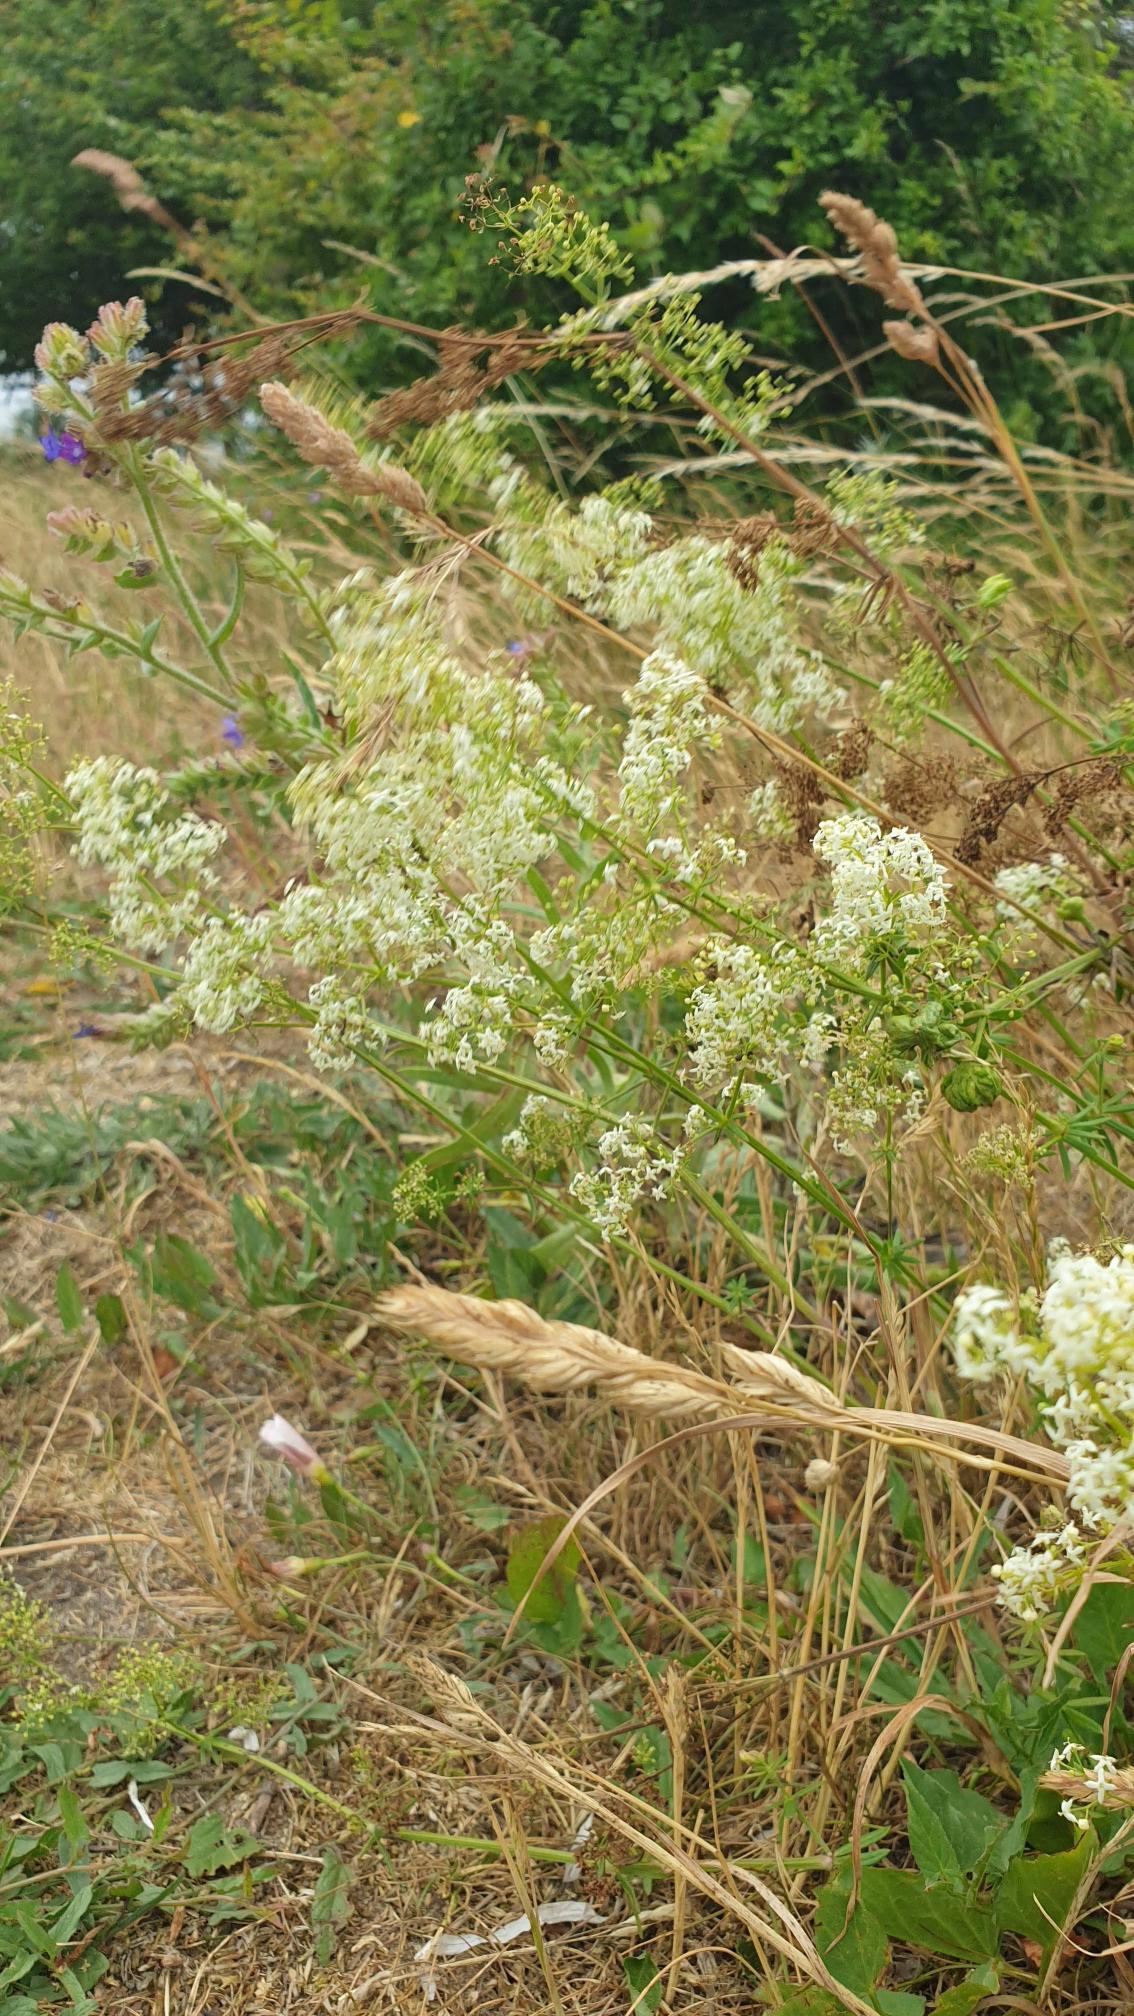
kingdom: Plantae
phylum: Tracheophyta
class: Magnoliopsida
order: Gentianales
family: Rubiaceae
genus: Galium
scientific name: Galium mollugo
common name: Hvid snerre
